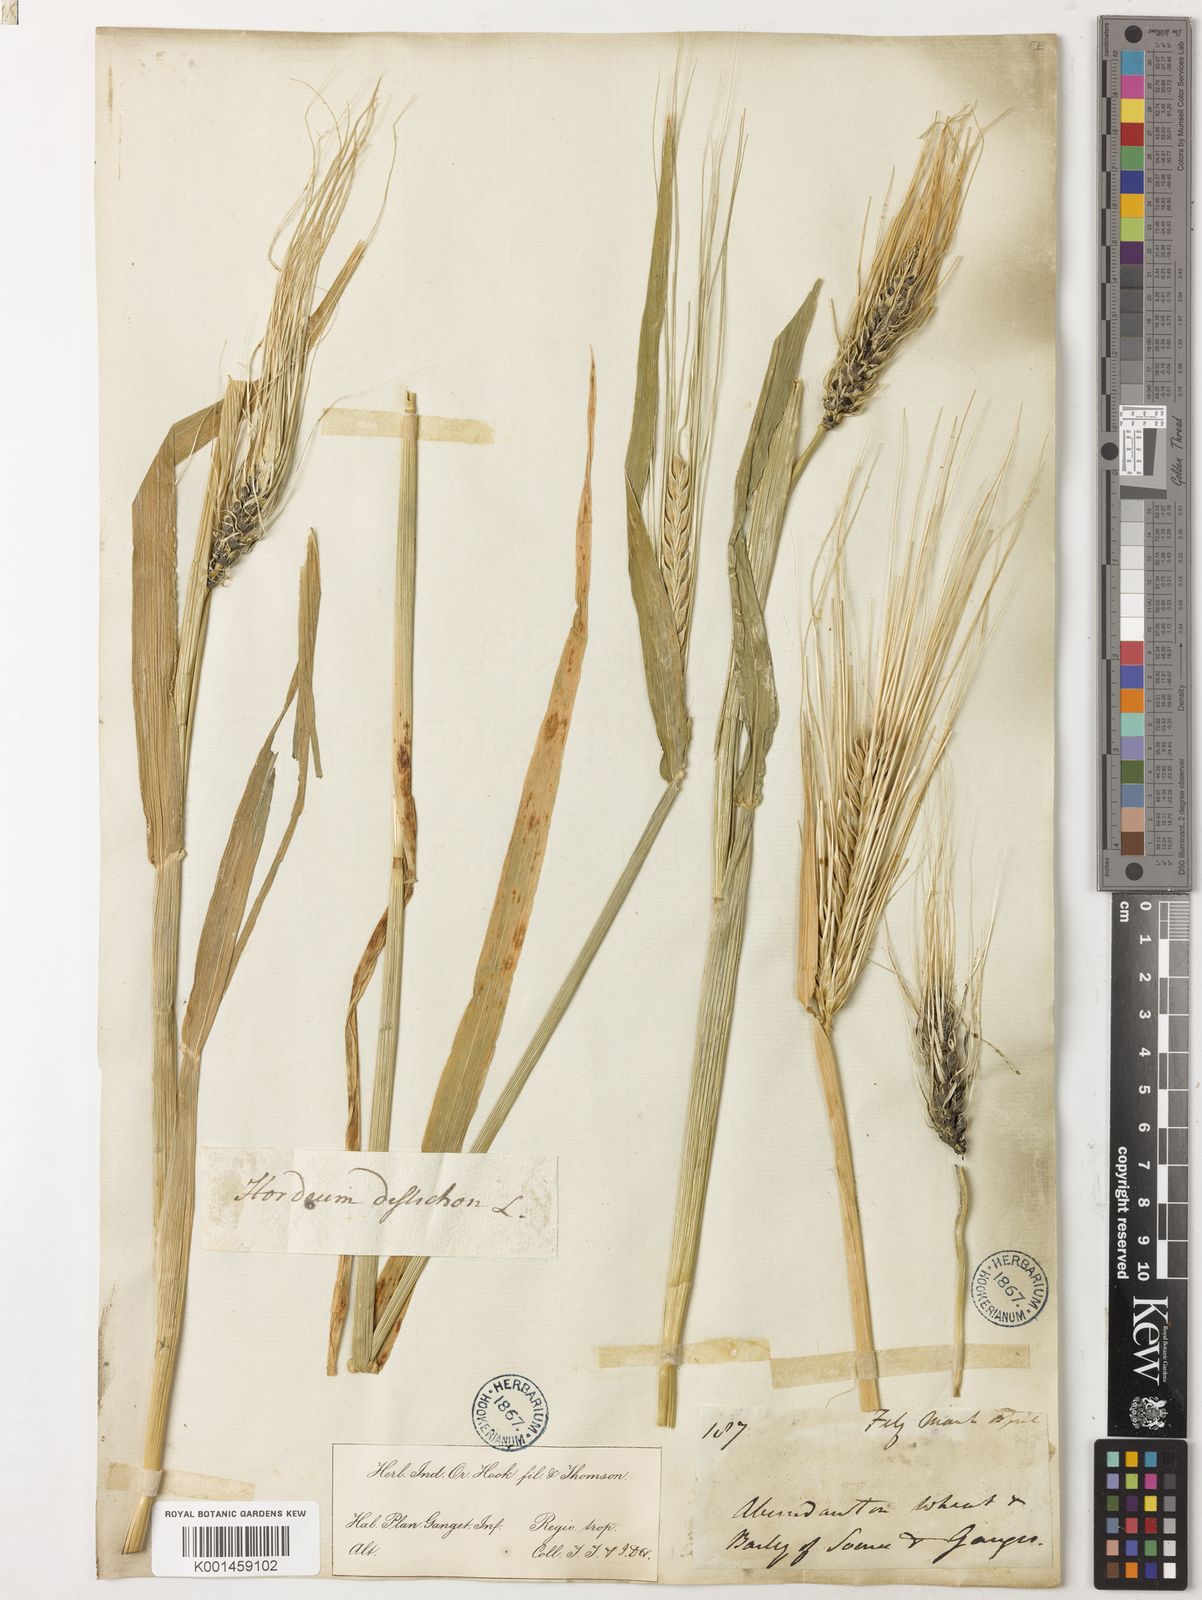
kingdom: Plantae
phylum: Tracheophyta
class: Liliopsida
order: Poales
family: Poaceae
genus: Hordeum
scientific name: Hordeum vulgare
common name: Common barley
